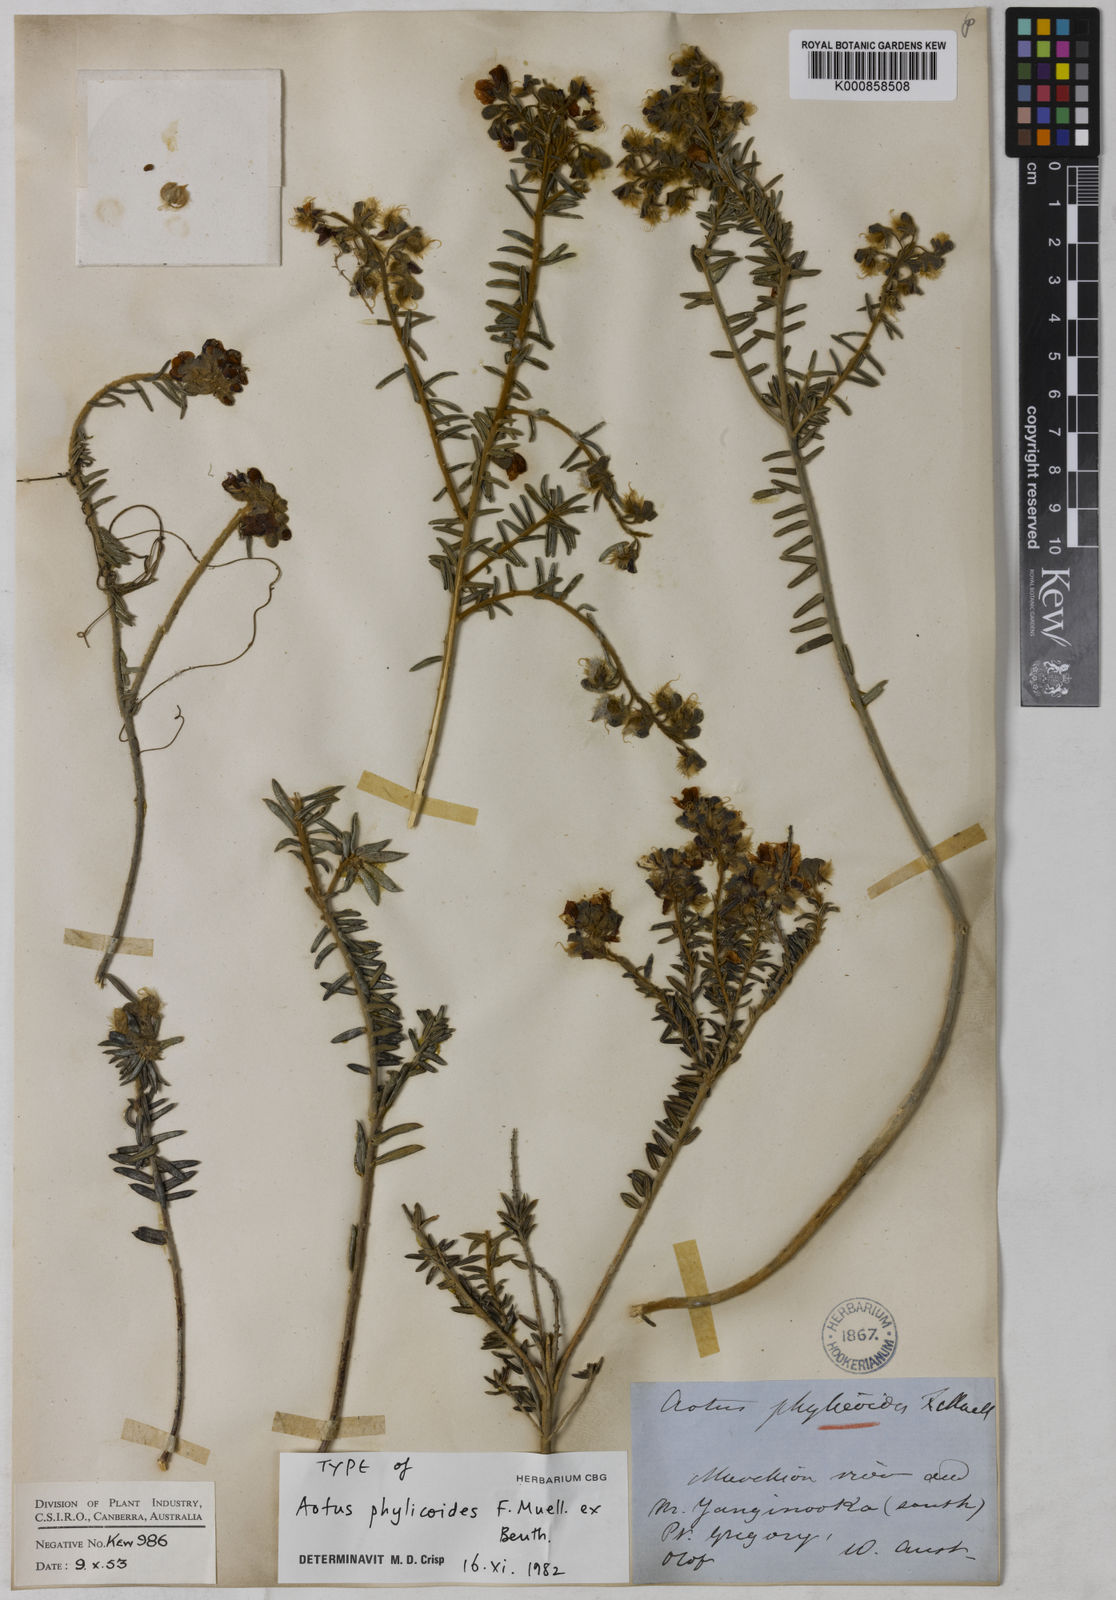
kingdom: Plantae
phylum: Tracheophyta
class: Magnoliopsida
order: Fabales
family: Fabaceae
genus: Aotus
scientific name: Aotus phylicoides
